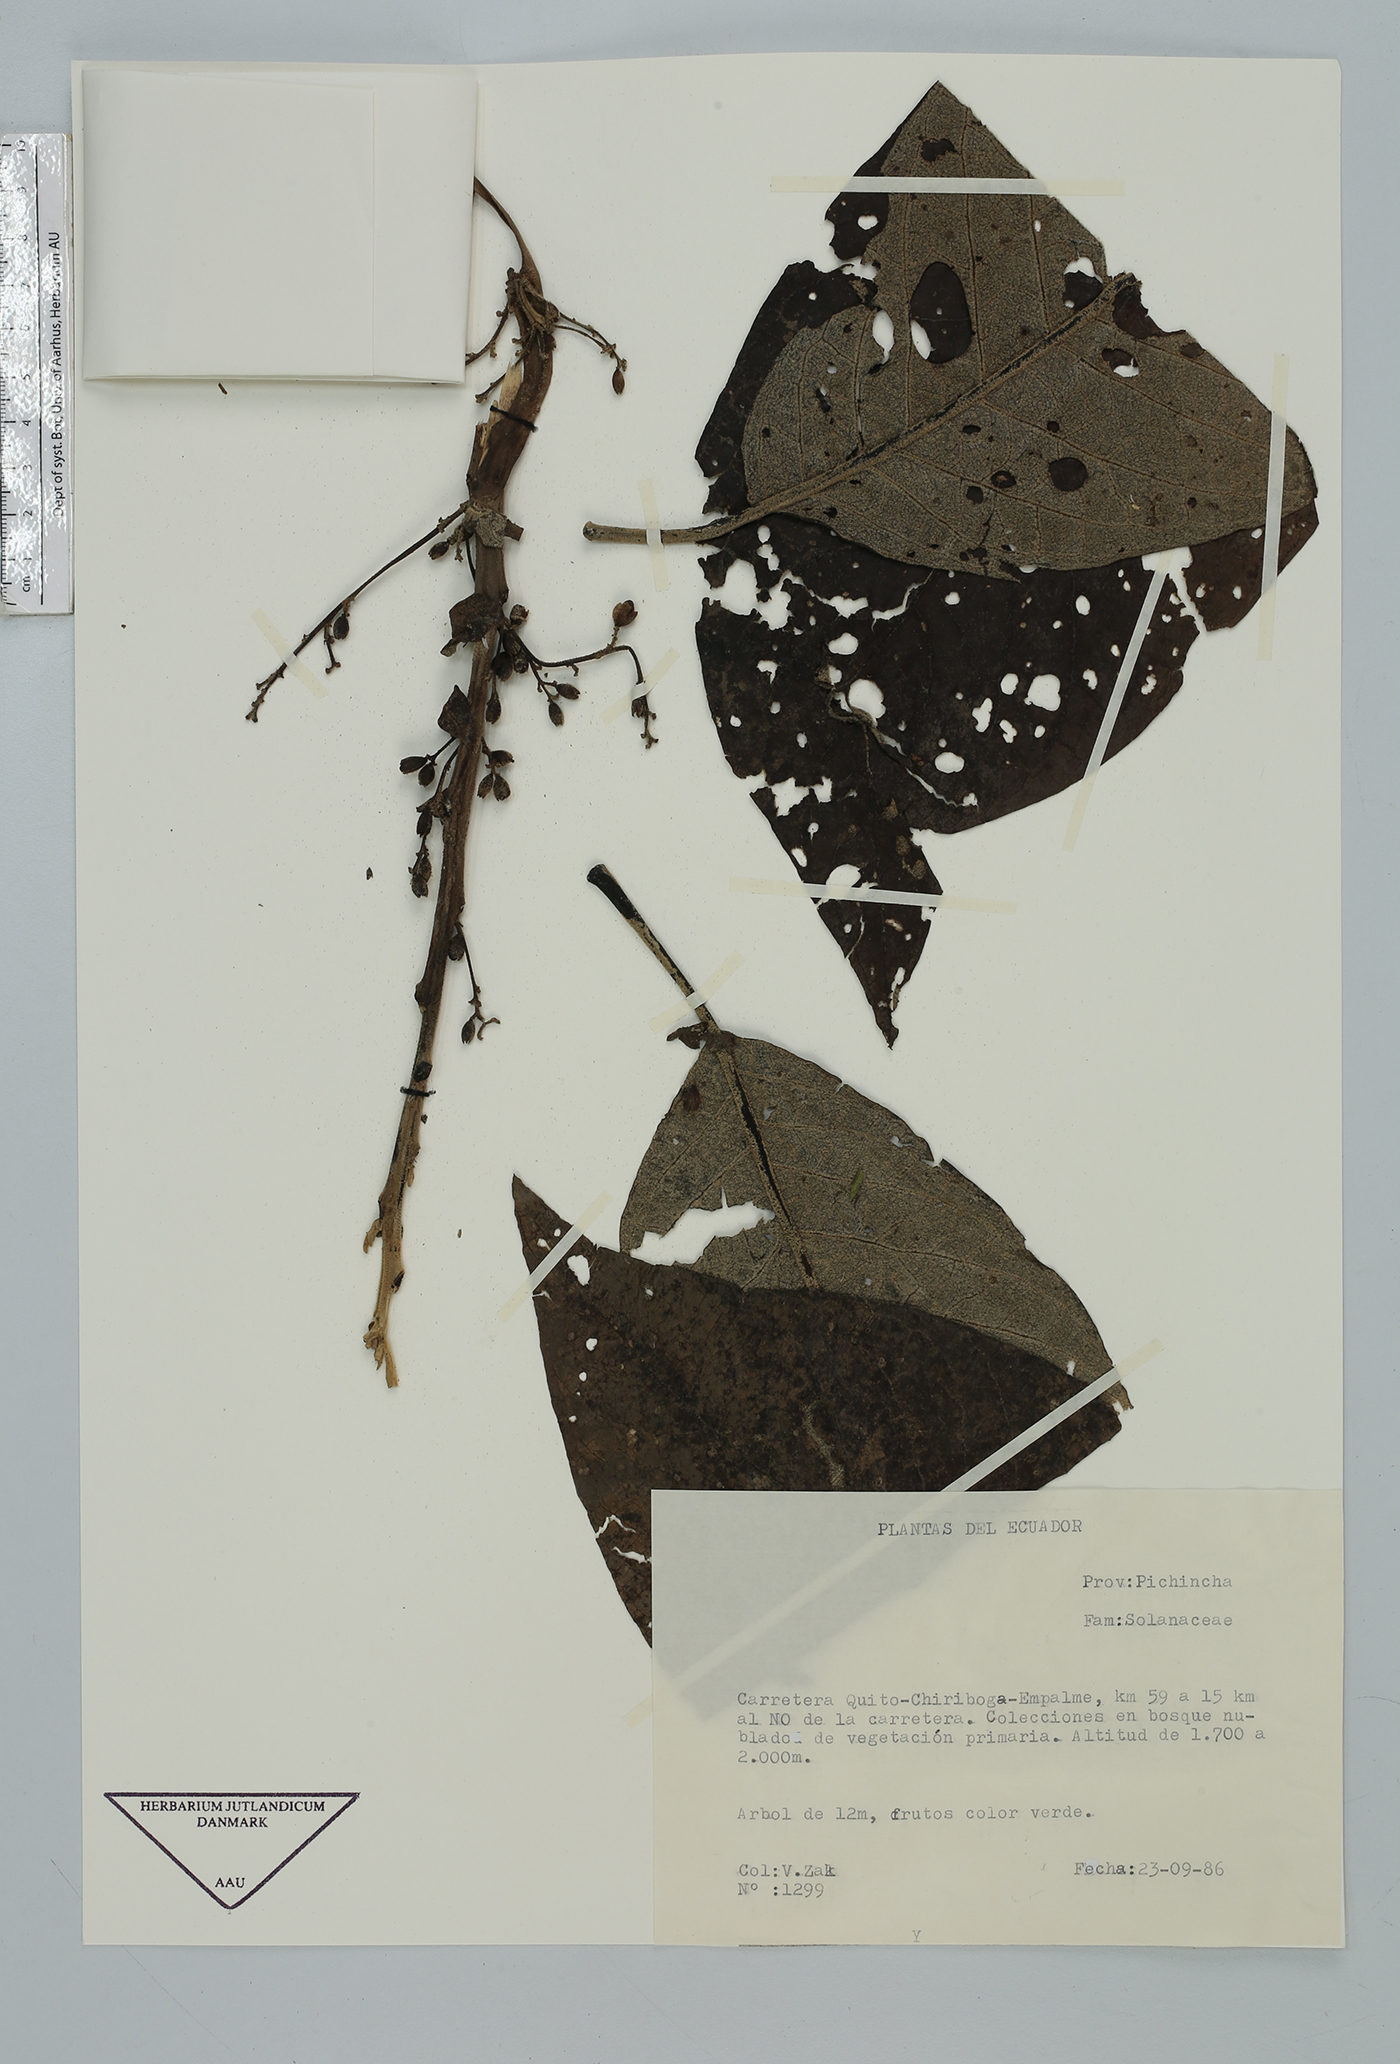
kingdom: Plantae
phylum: Tracheophyta
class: Magnoliopsida
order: Solanales
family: Solanaceae
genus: Cestrum
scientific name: Cestrum
